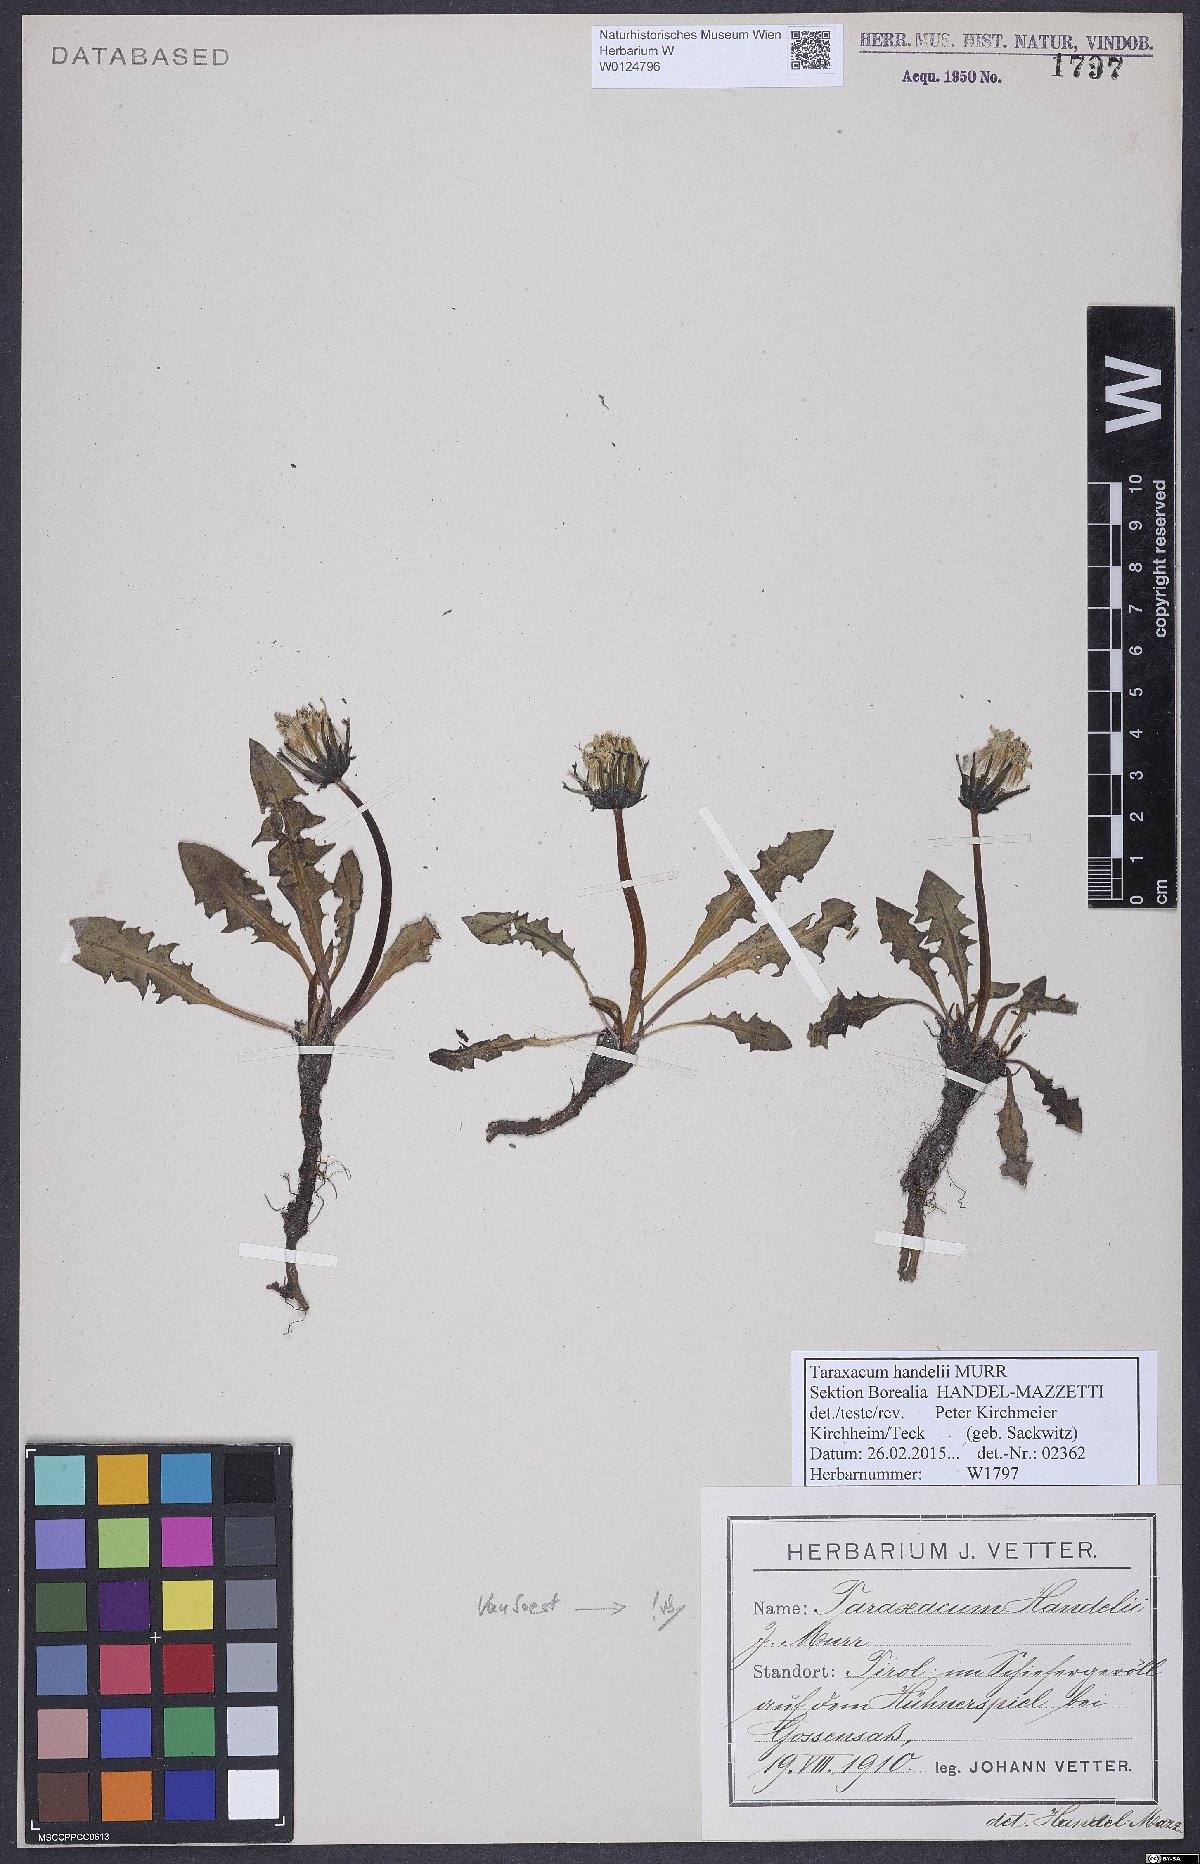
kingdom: Plantae
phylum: Tracheophyta
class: Magnoliopsida
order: Asterales
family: Asteraceae
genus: Taraxacum
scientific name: Taraxacum handelii
